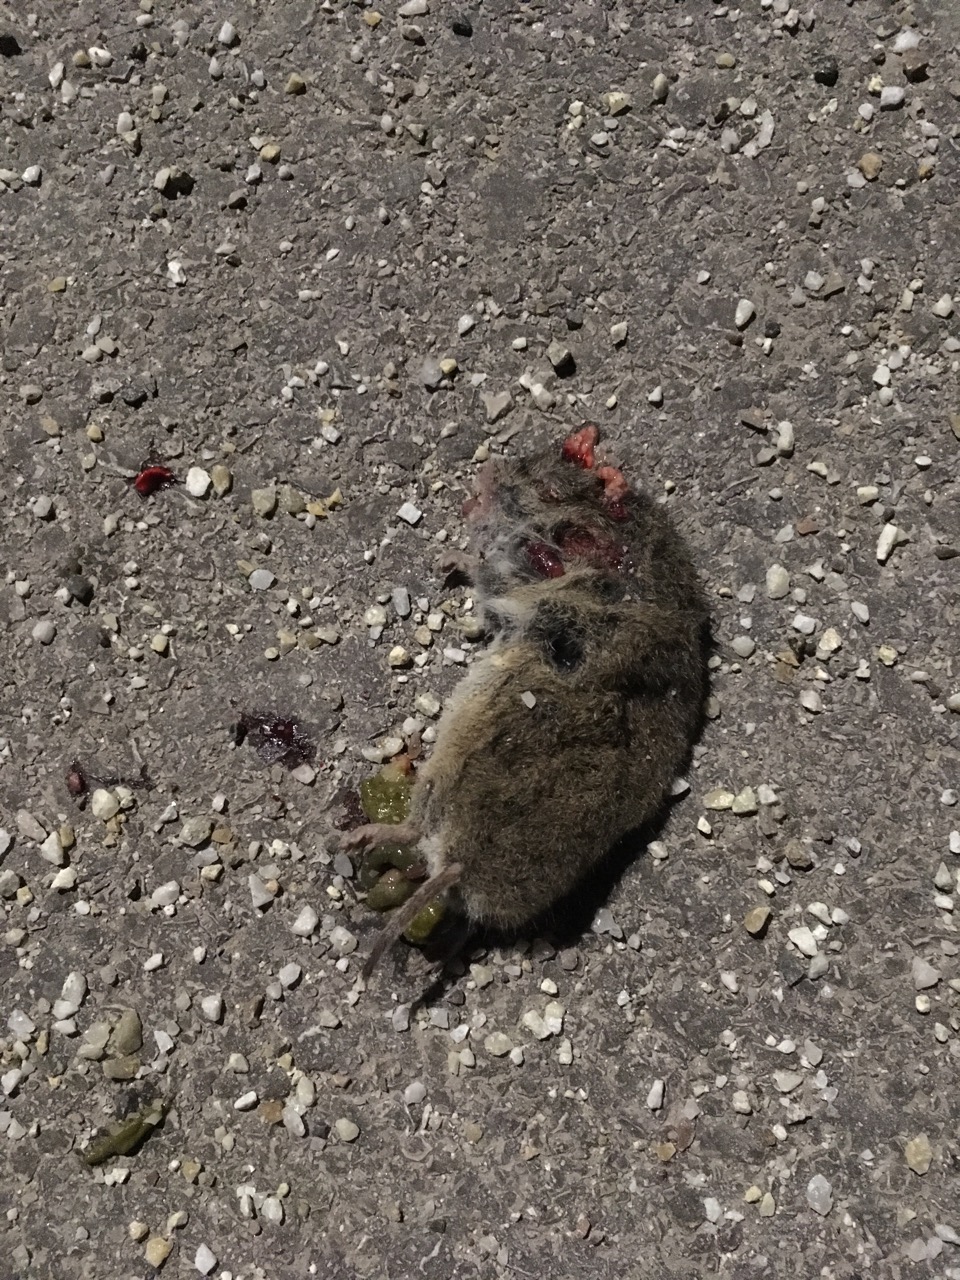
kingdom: Animalia
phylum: Chordata
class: Mammalia
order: Rodentia
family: Cricetidae
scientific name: Cricetidae
